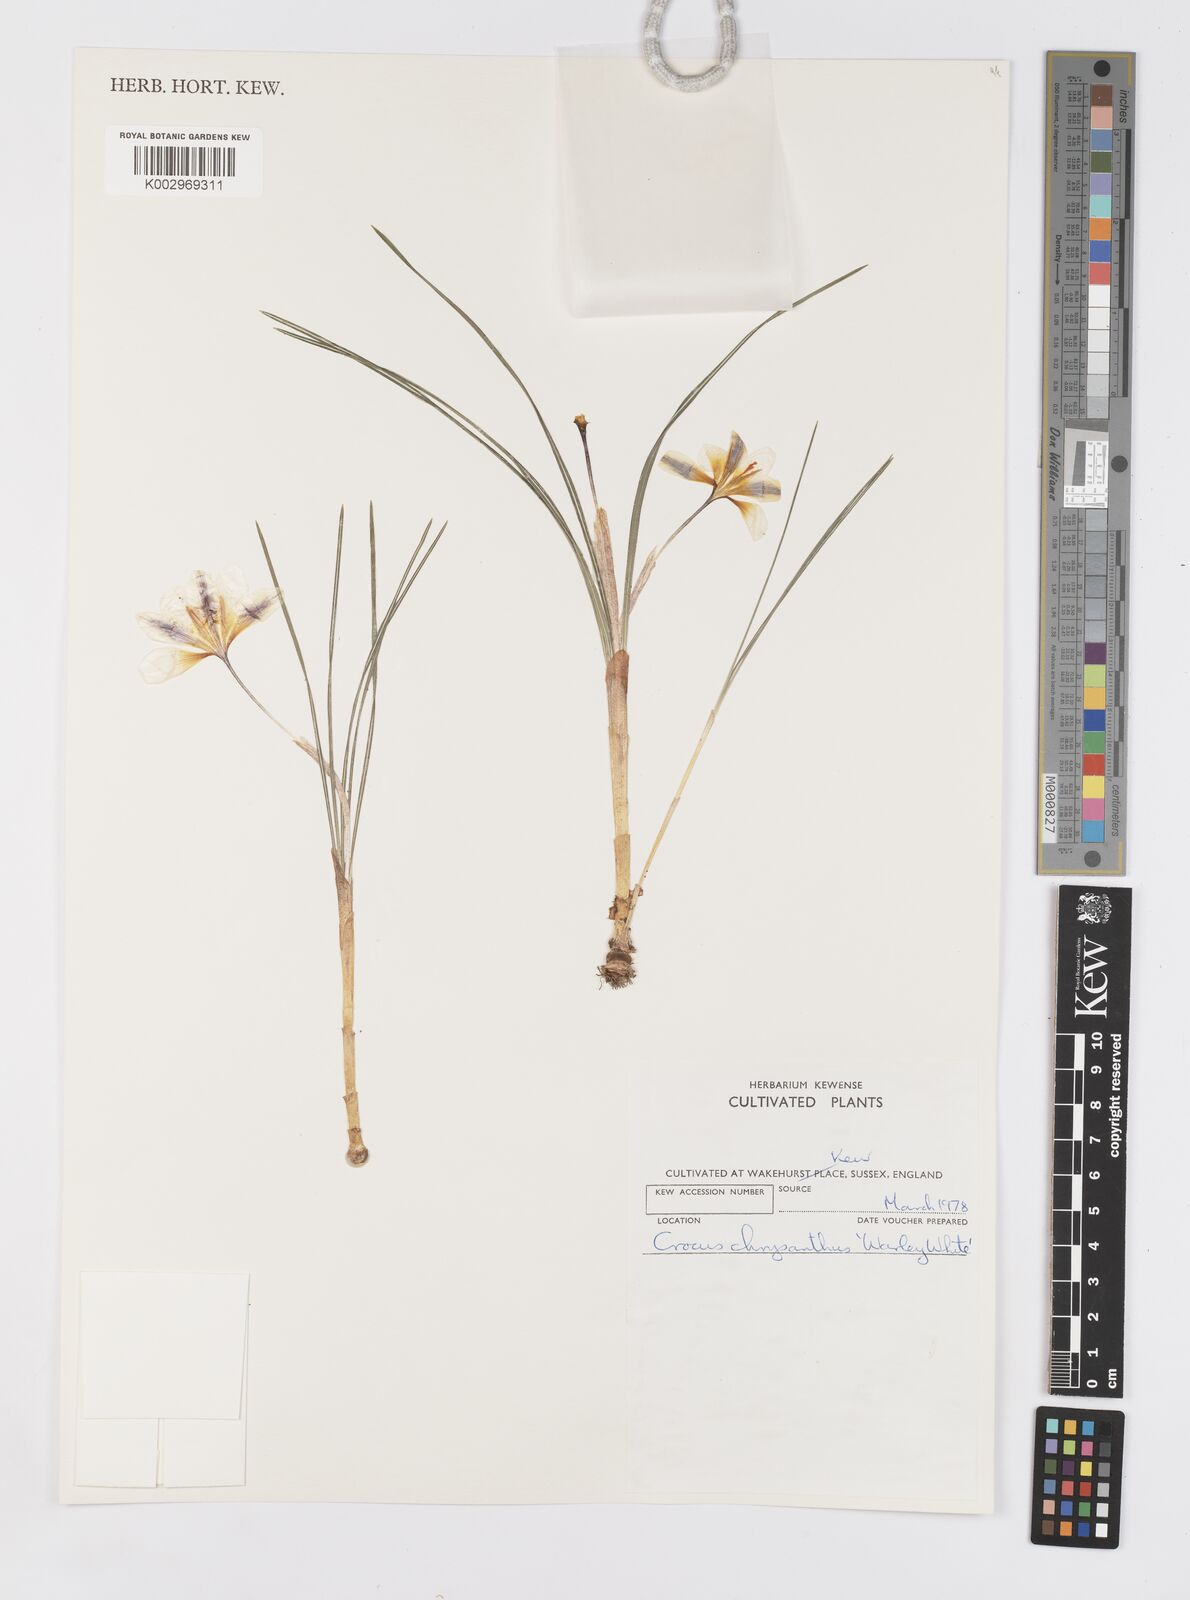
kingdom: Plantae
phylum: Tracheophyta
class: Liliopsida
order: Asparagales
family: Iridaceae
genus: Crocus
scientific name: Crocus chrysanthus
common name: Golden crocus
